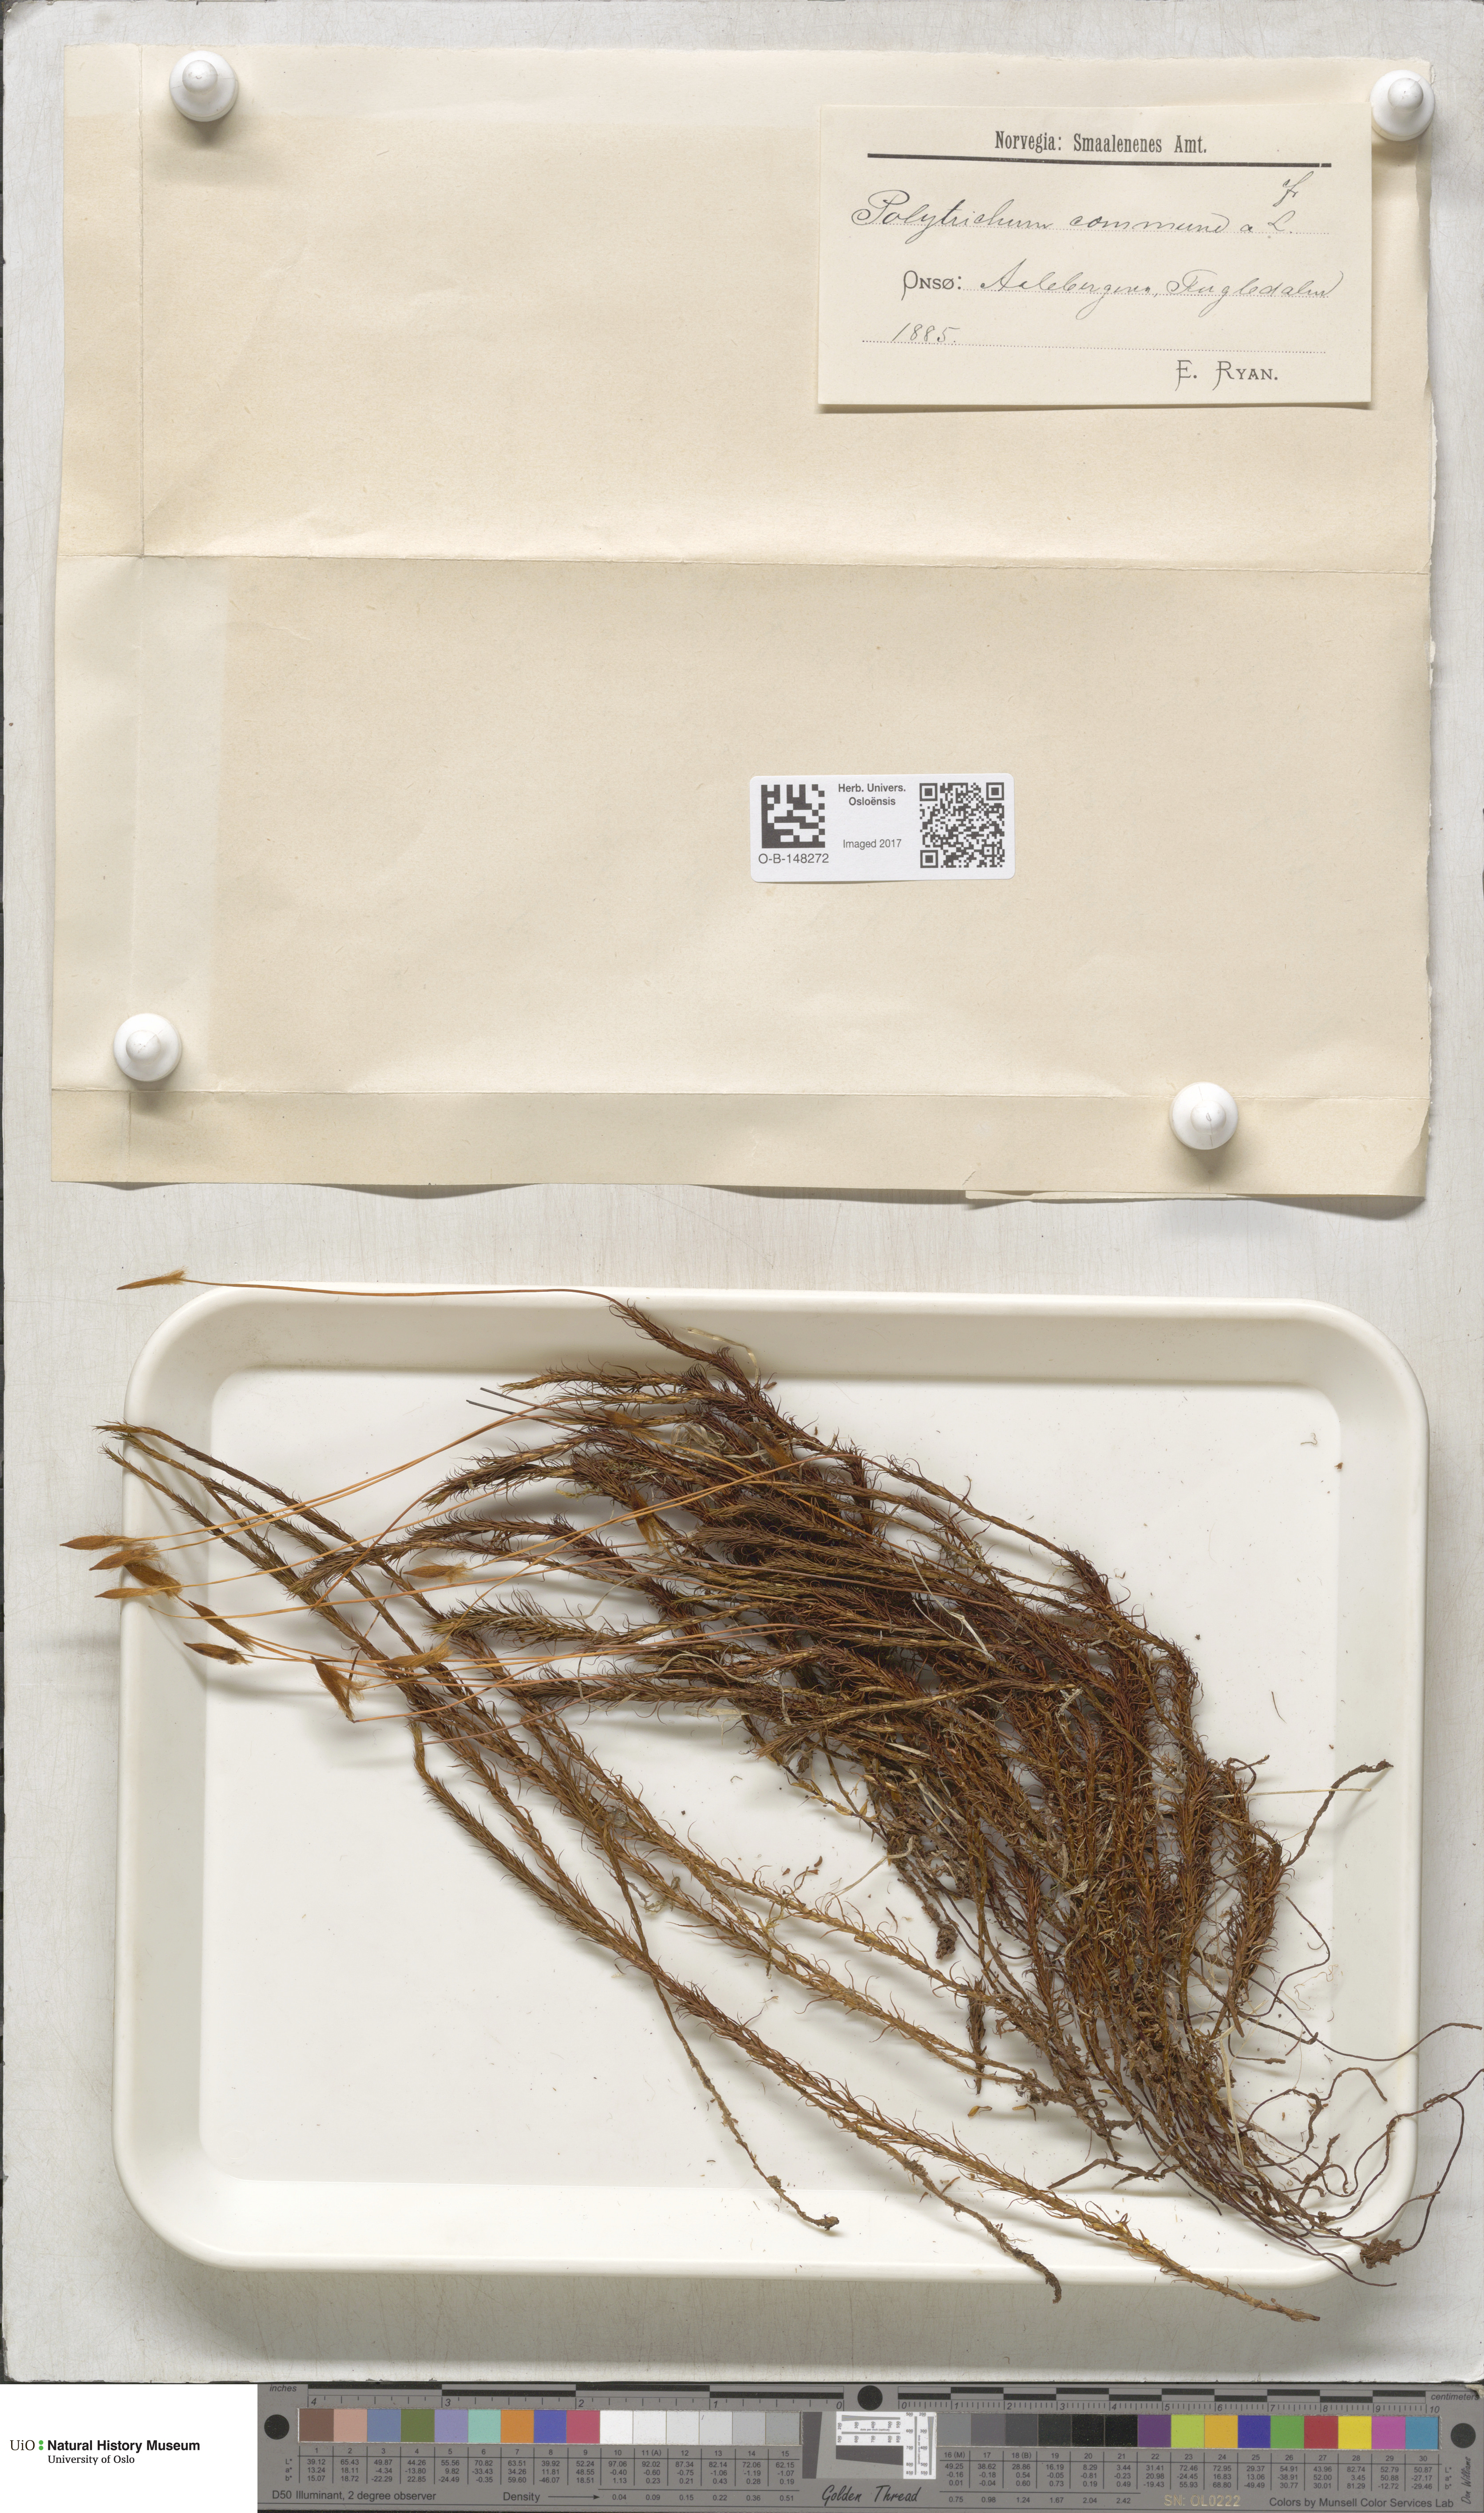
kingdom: Plantae
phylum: Bryophyta
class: Polytrichopsida
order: Polytrichales
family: Polytrichaceae
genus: Polytrichum
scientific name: Polytrichum commune
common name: Common haircap
